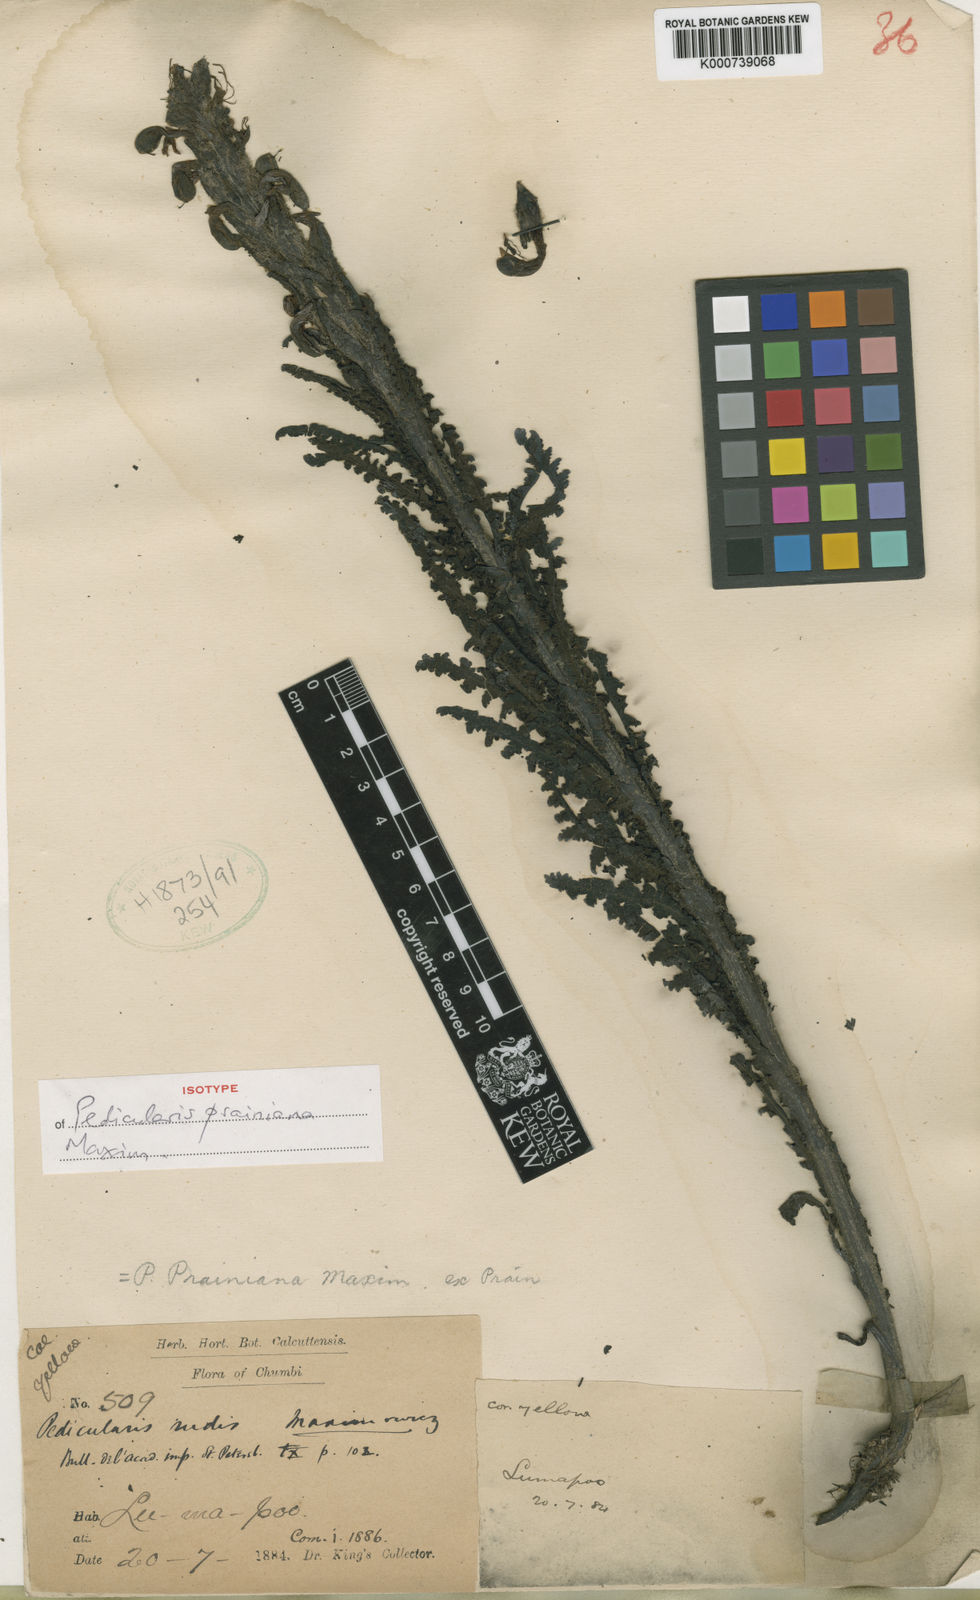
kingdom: Plantae
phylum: Tracheophyta
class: Magnoliopsida
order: Lamiales
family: Orobanchaceae
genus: Pedicularis
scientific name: Pedicularis prainiana
